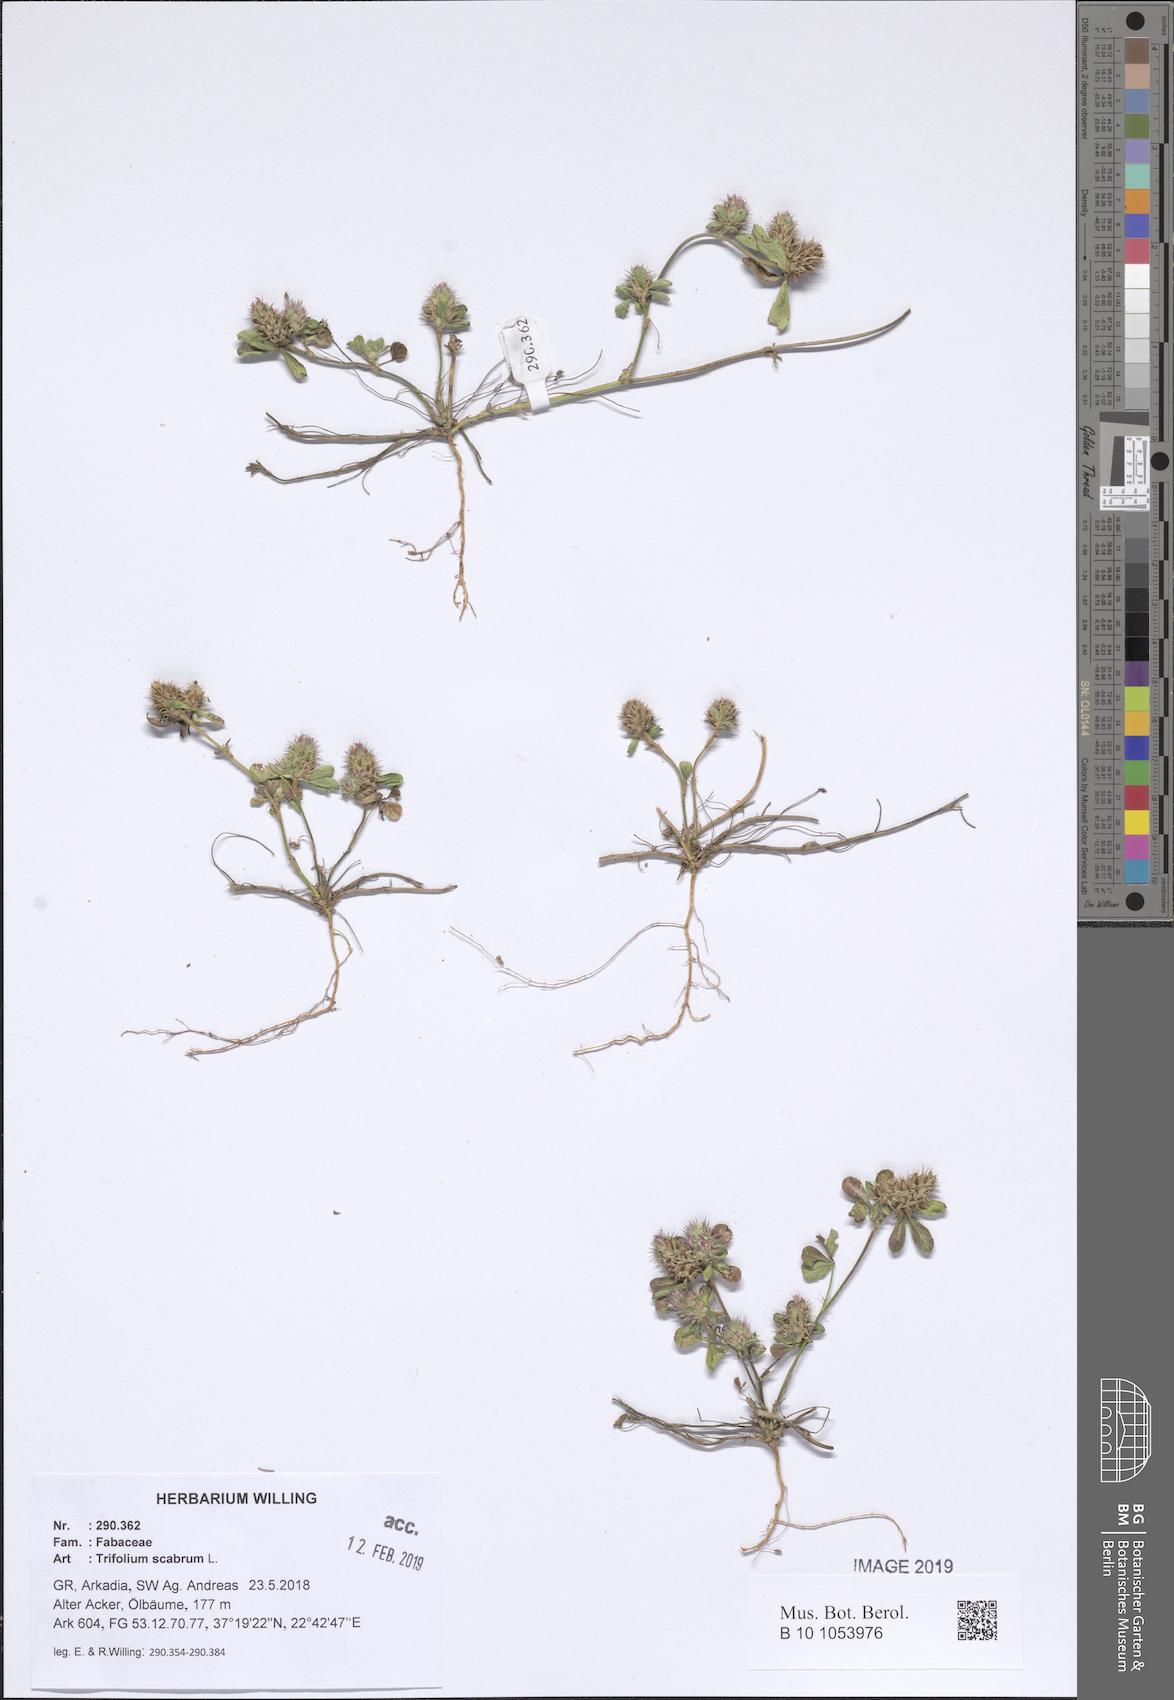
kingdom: Plantae
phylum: Tracheophyta
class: Magnoliopsida
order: Fabales
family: Fabaceae
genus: Trifolium
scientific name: Trifolium scabrum
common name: Rough clover
